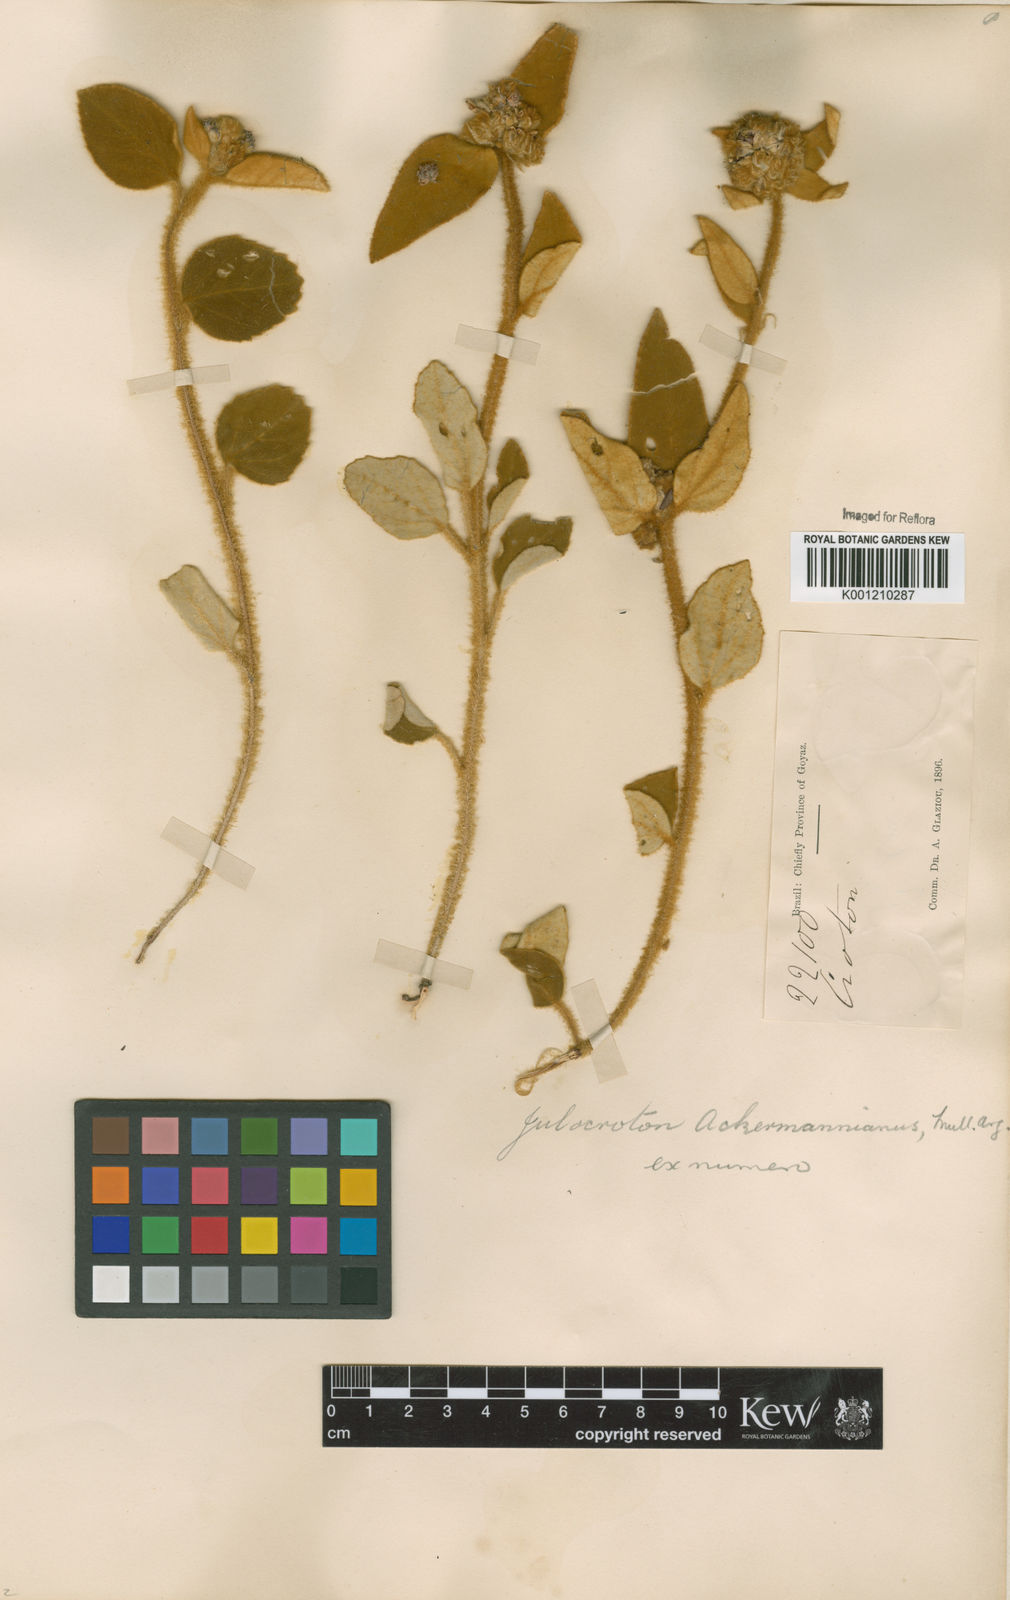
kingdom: Plantae
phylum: Tracheophyta
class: Magnoliopsida
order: Malpighiales
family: Euphorbiaceae
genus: Croton
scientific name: Croton
